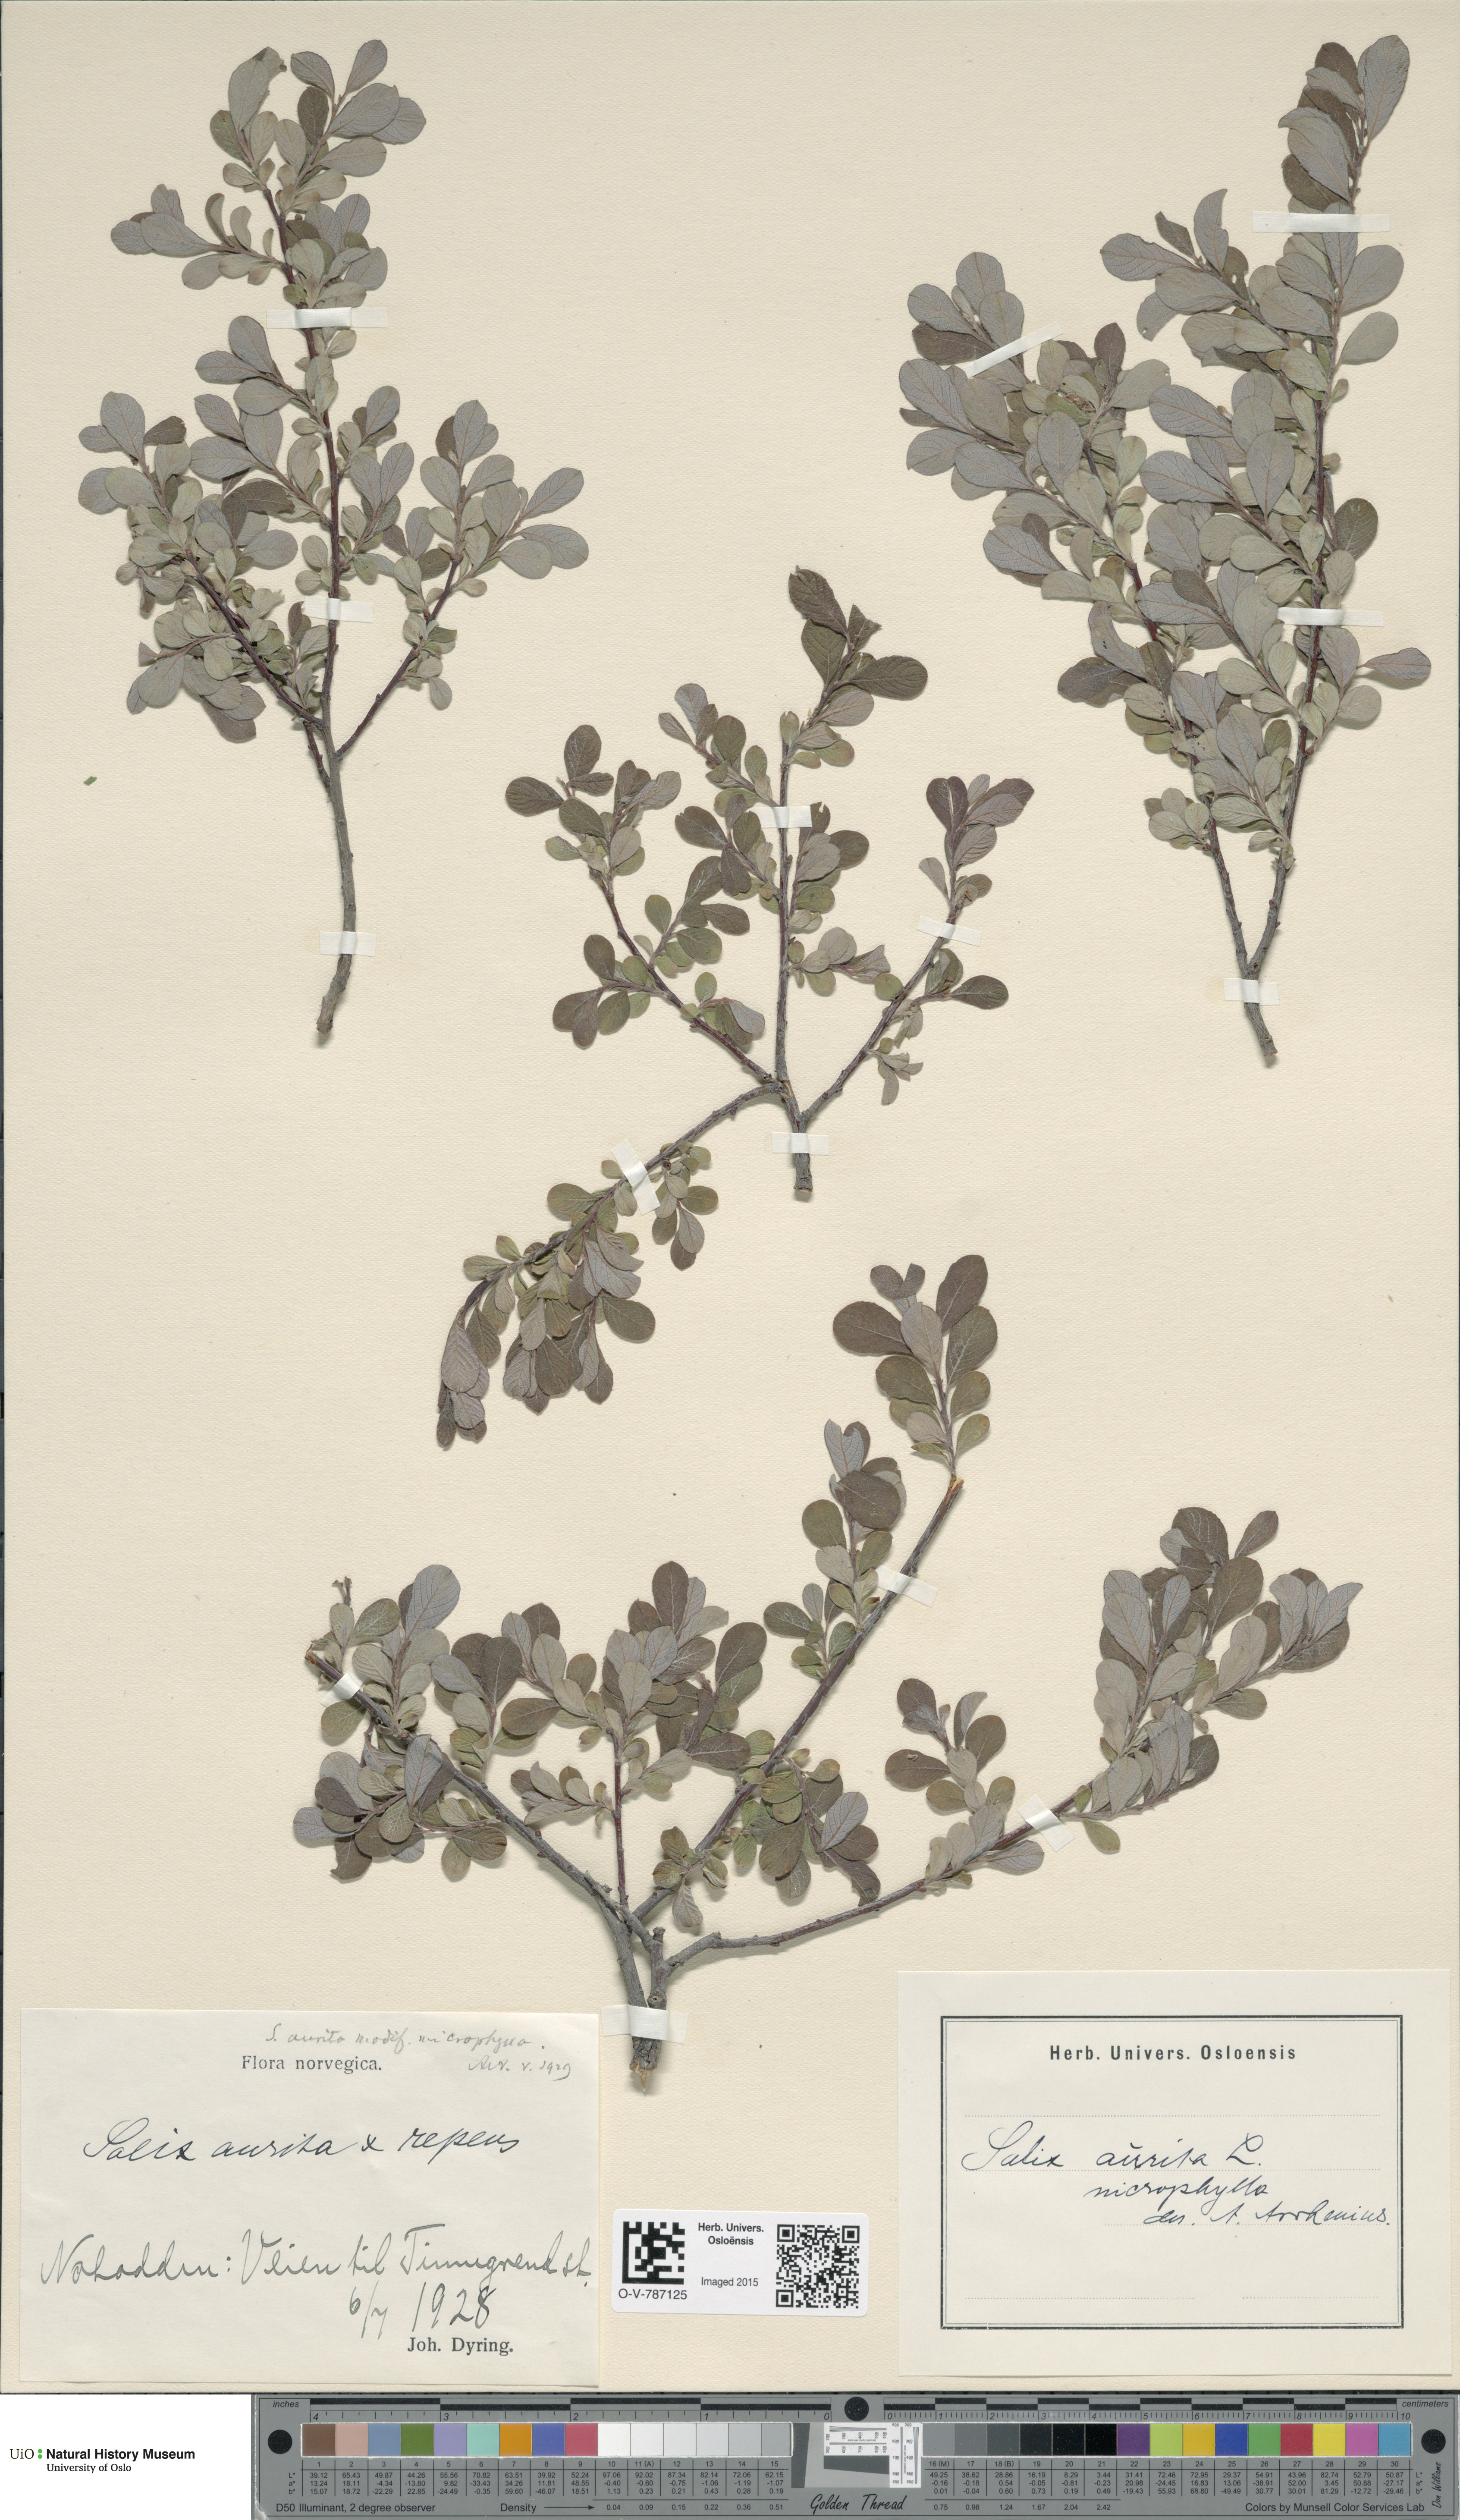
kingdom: Plantae
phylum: Tracheophyta
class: Magnoliopsida
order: Malpighiales
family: Salicaceae
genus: Salix
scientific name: Salix aurita
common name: Eared willow
